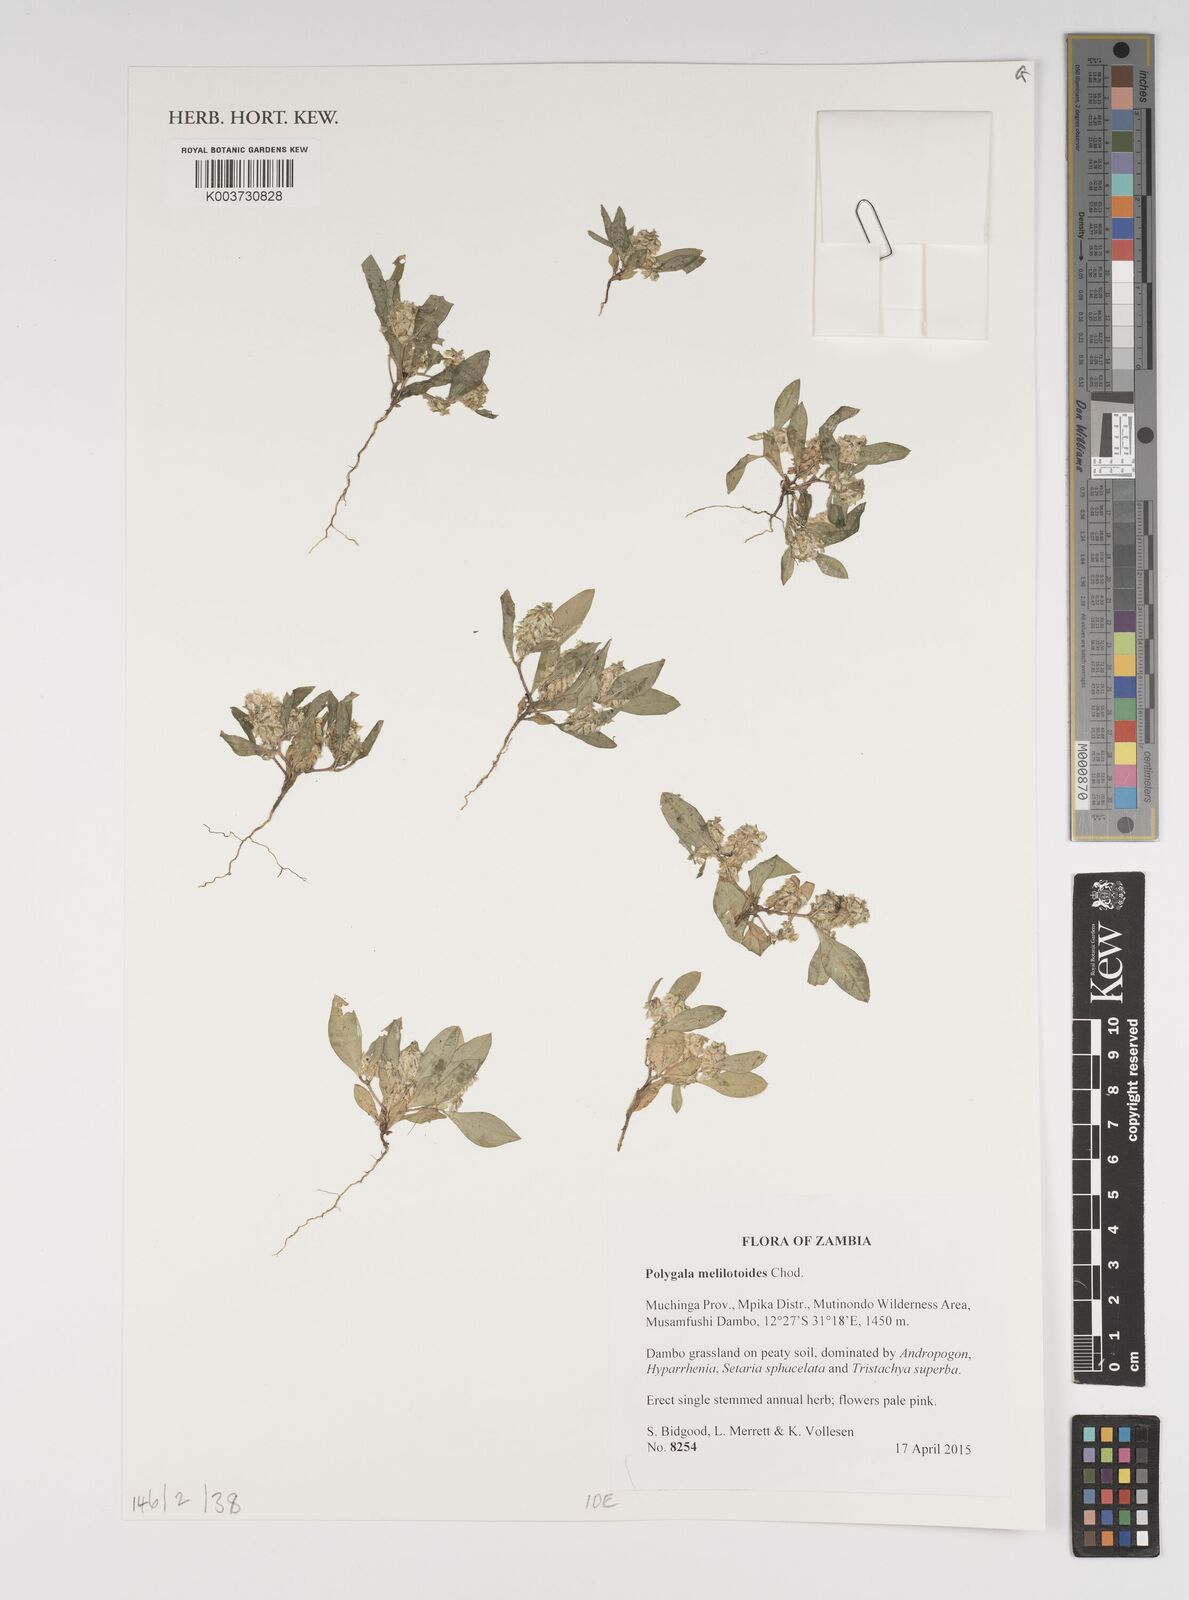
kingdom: Plantae
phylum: Tracheophyta
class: Magnoliopsida
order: Fabales
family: Polygalaceae
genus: Polygala
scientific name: Polygala melilotoides
